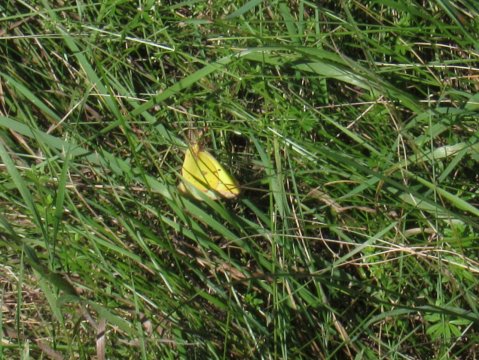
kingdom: Animalia
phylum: Arthropoda
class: Insecta
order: Lepidoptera
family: Pieridae
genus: Colias
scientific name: Colias philodice
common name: Clouded Sulphur
